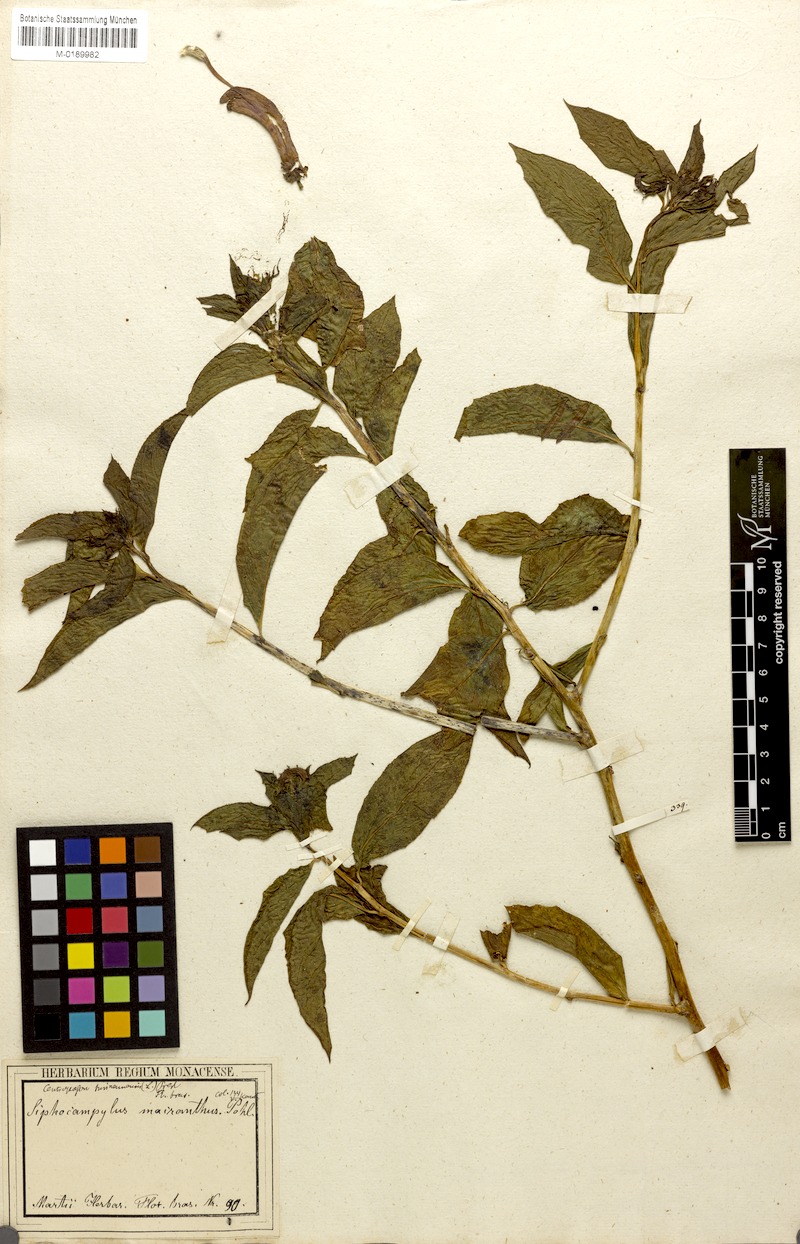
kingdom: Plantae
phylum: Tracheophyta
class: Magnoliopsida
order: Asterales
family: Campanulaceae
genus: Centropogon
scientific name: Centropogon cornutus
